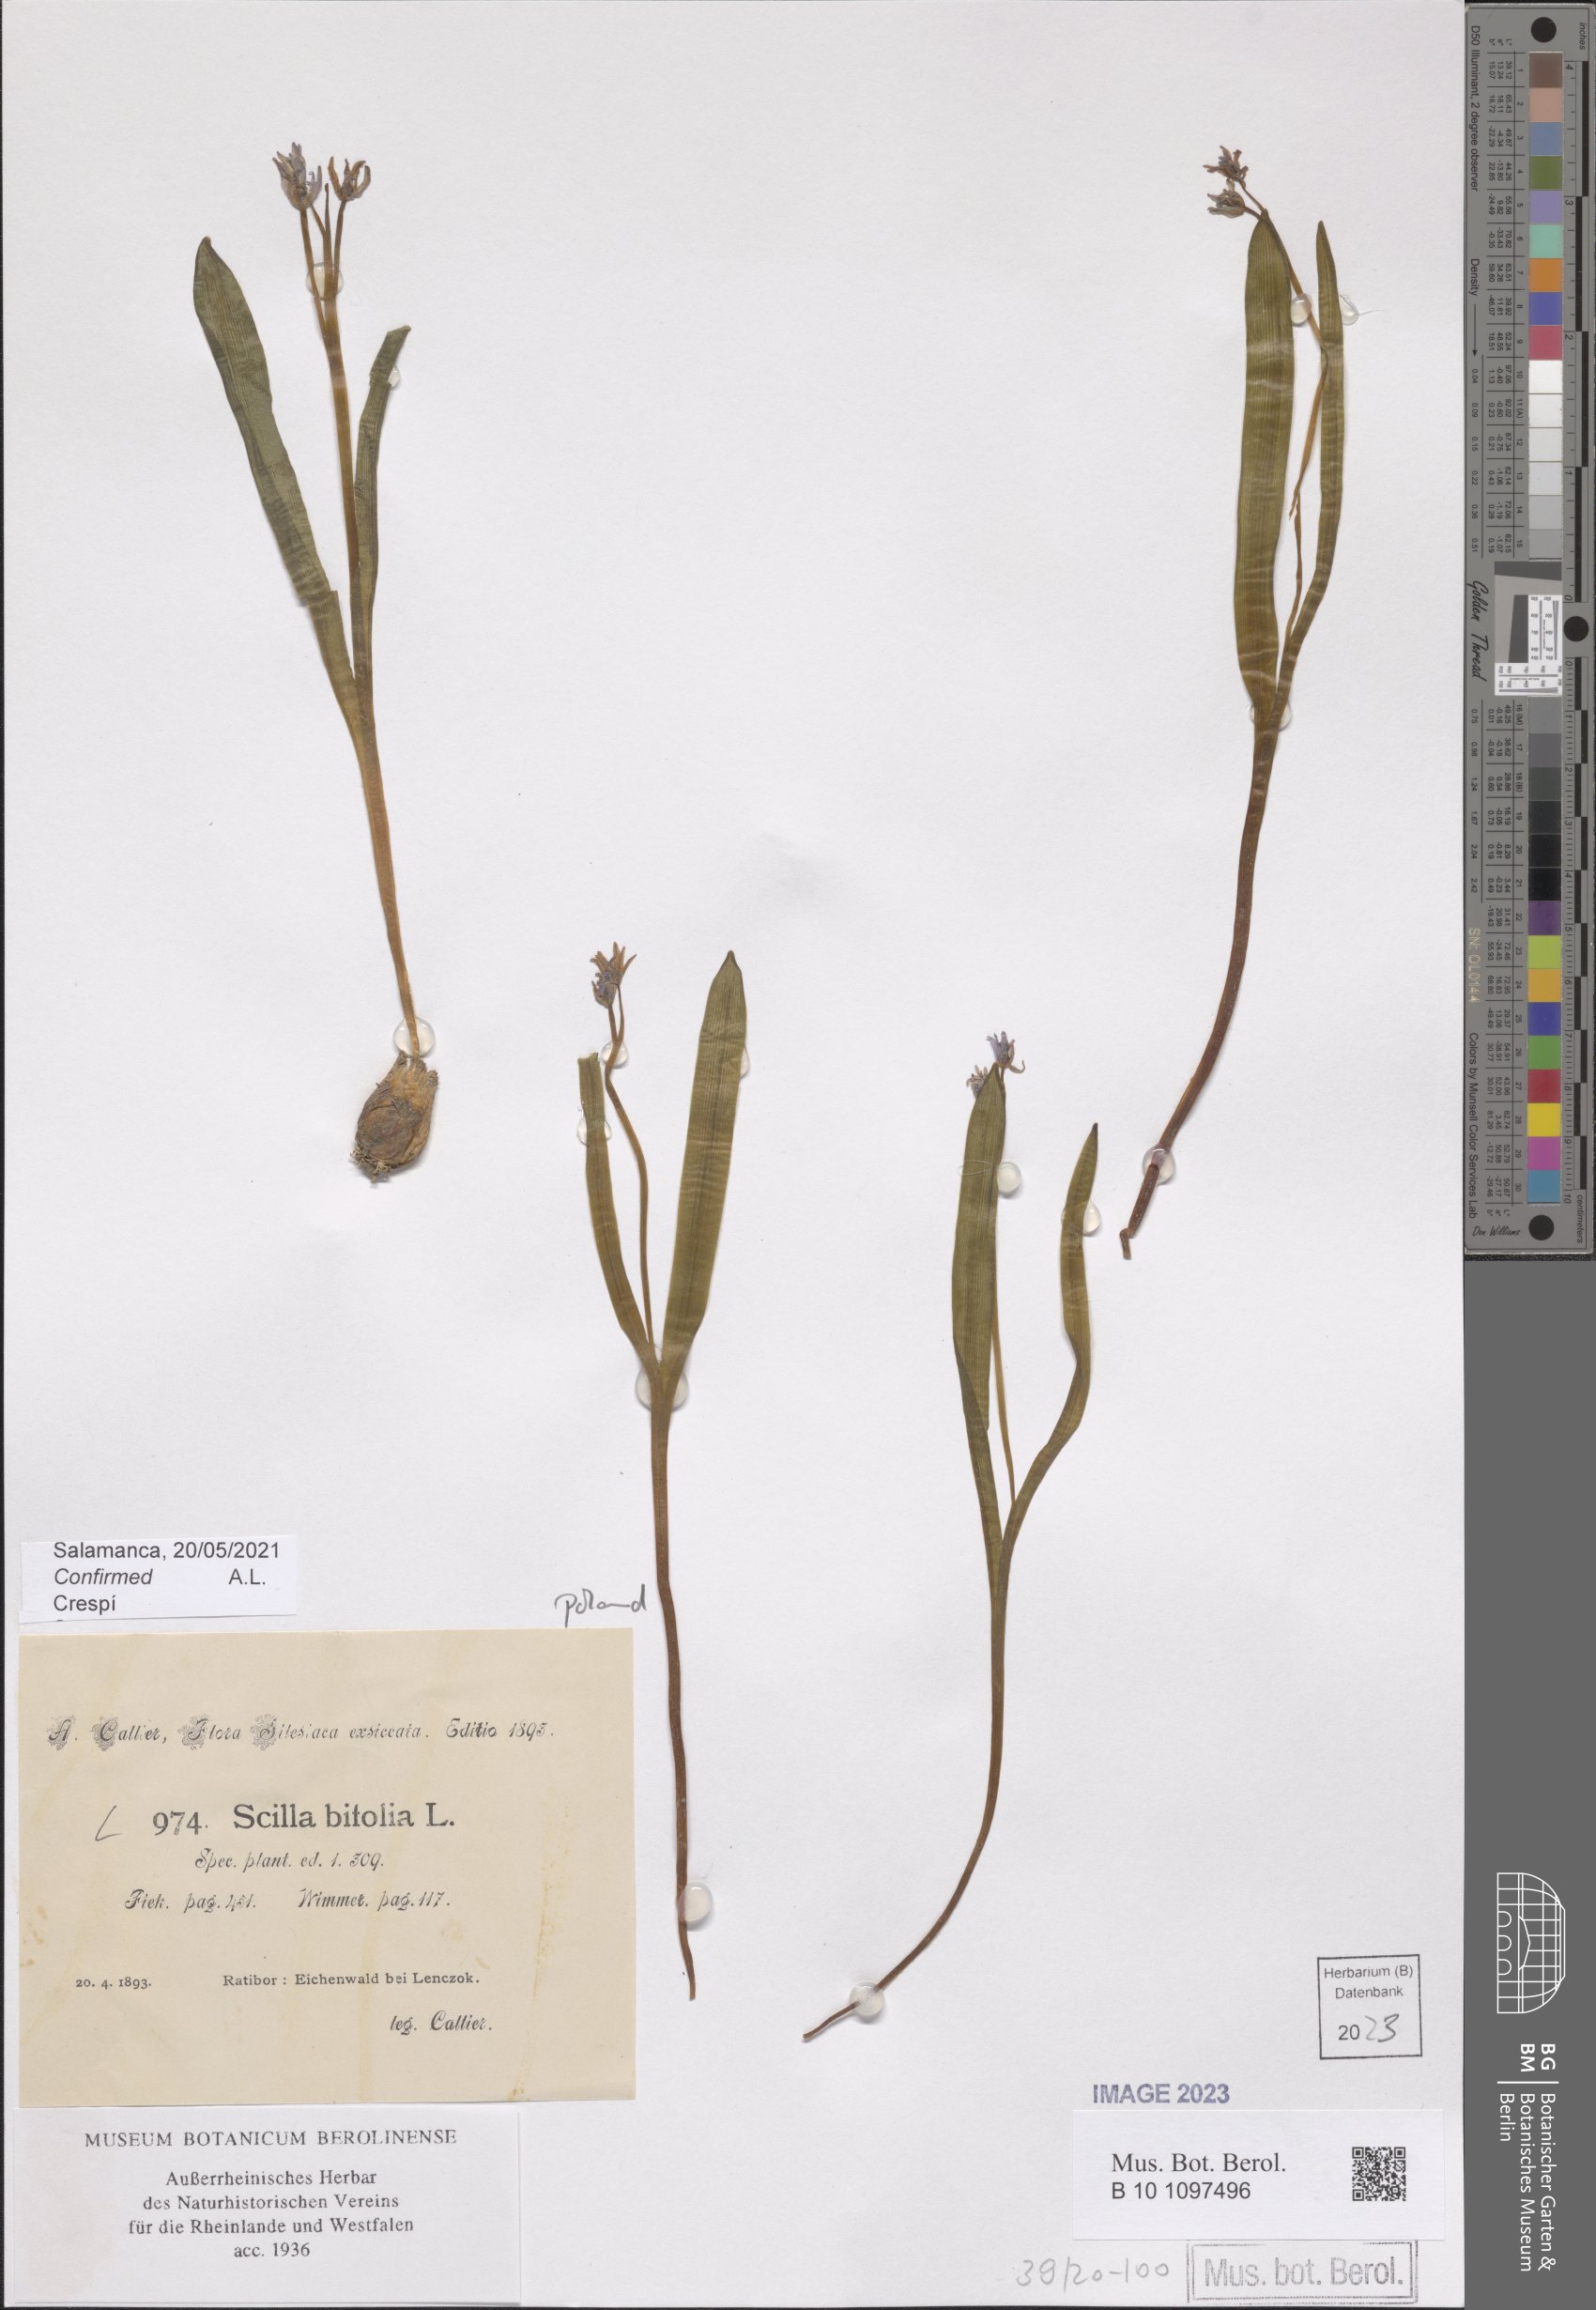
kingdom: Plantae
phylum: Tracheophyta
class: Liliopsida
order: Asparagales
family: Asparagaceae
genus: Scilla
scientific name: Scilla bifolia
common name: Alpine squill
